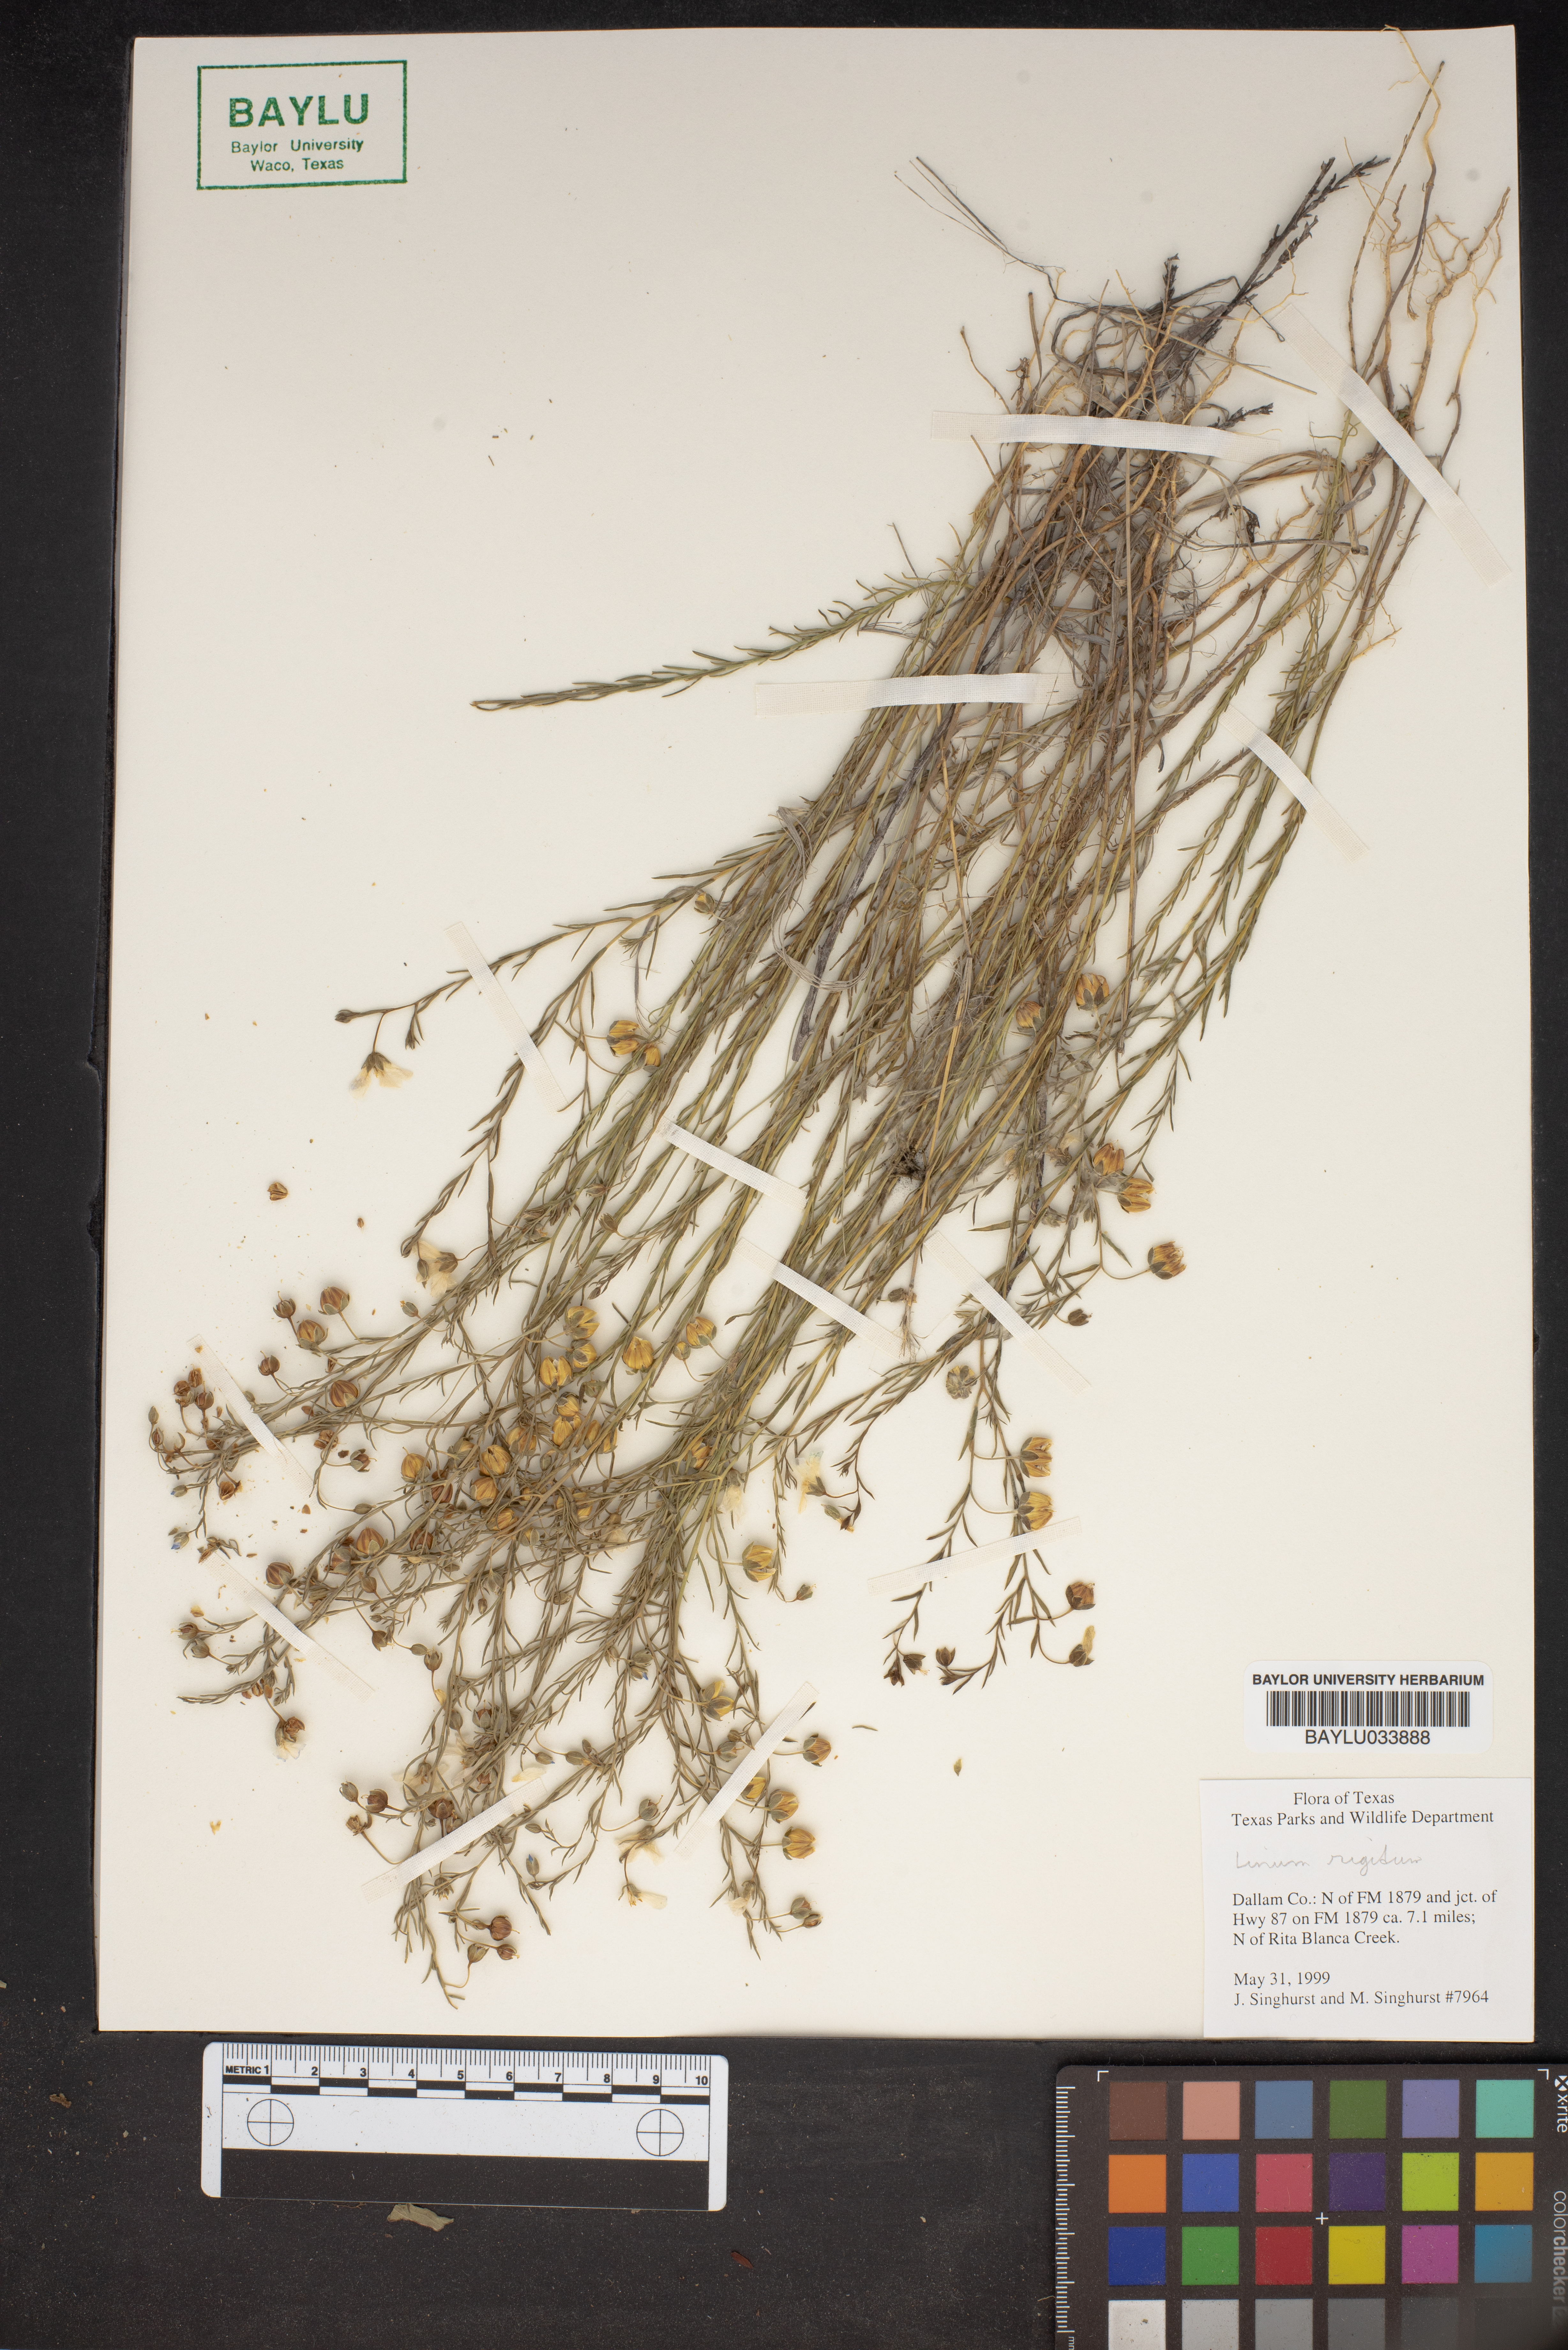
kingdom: Plantae
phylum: Tracheophyta
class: Magnoliopsida
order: Malpighiales
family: Linaceae
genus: Linum
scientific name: Linum rigidum
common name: Stiff-stem flax
